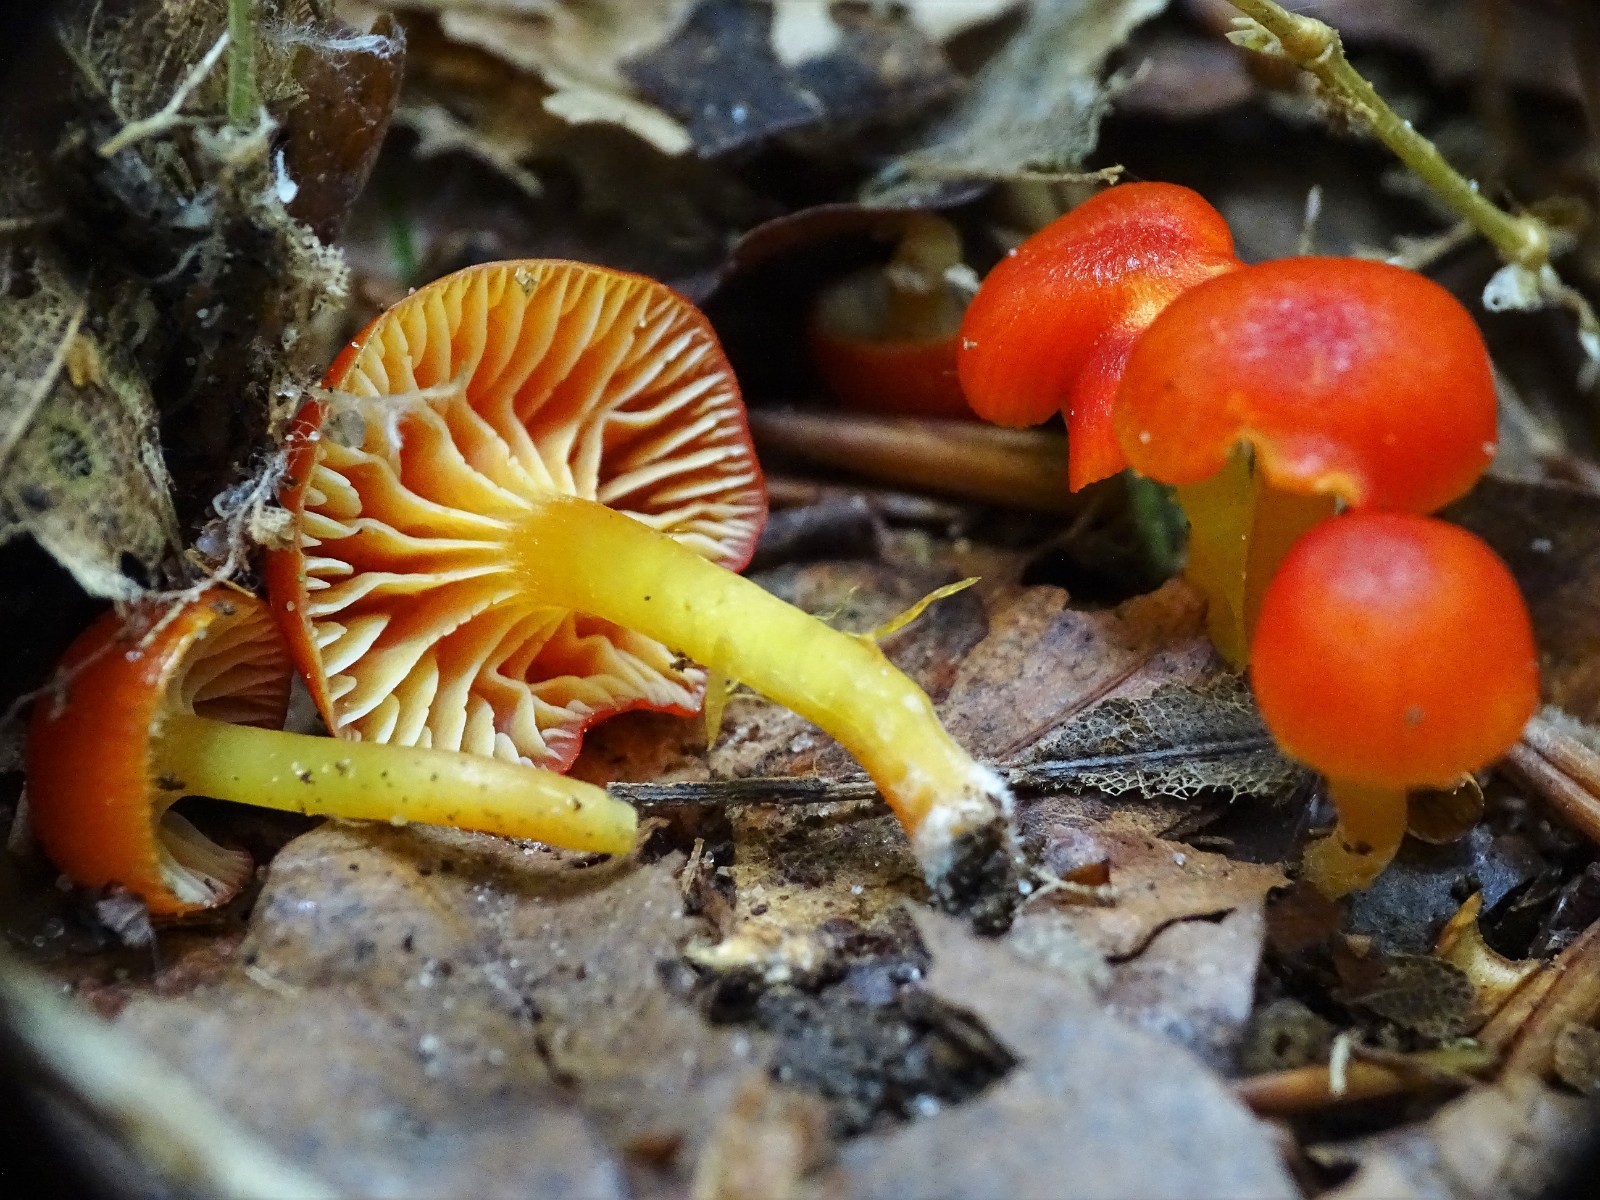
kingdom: Fungi
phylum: Basidiomycota
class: Agaricomycetes
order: Agaricales
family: Hygrophoraceae
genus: Hygrocybe
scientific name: Hygrocybe insipida
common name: liden vokshat
